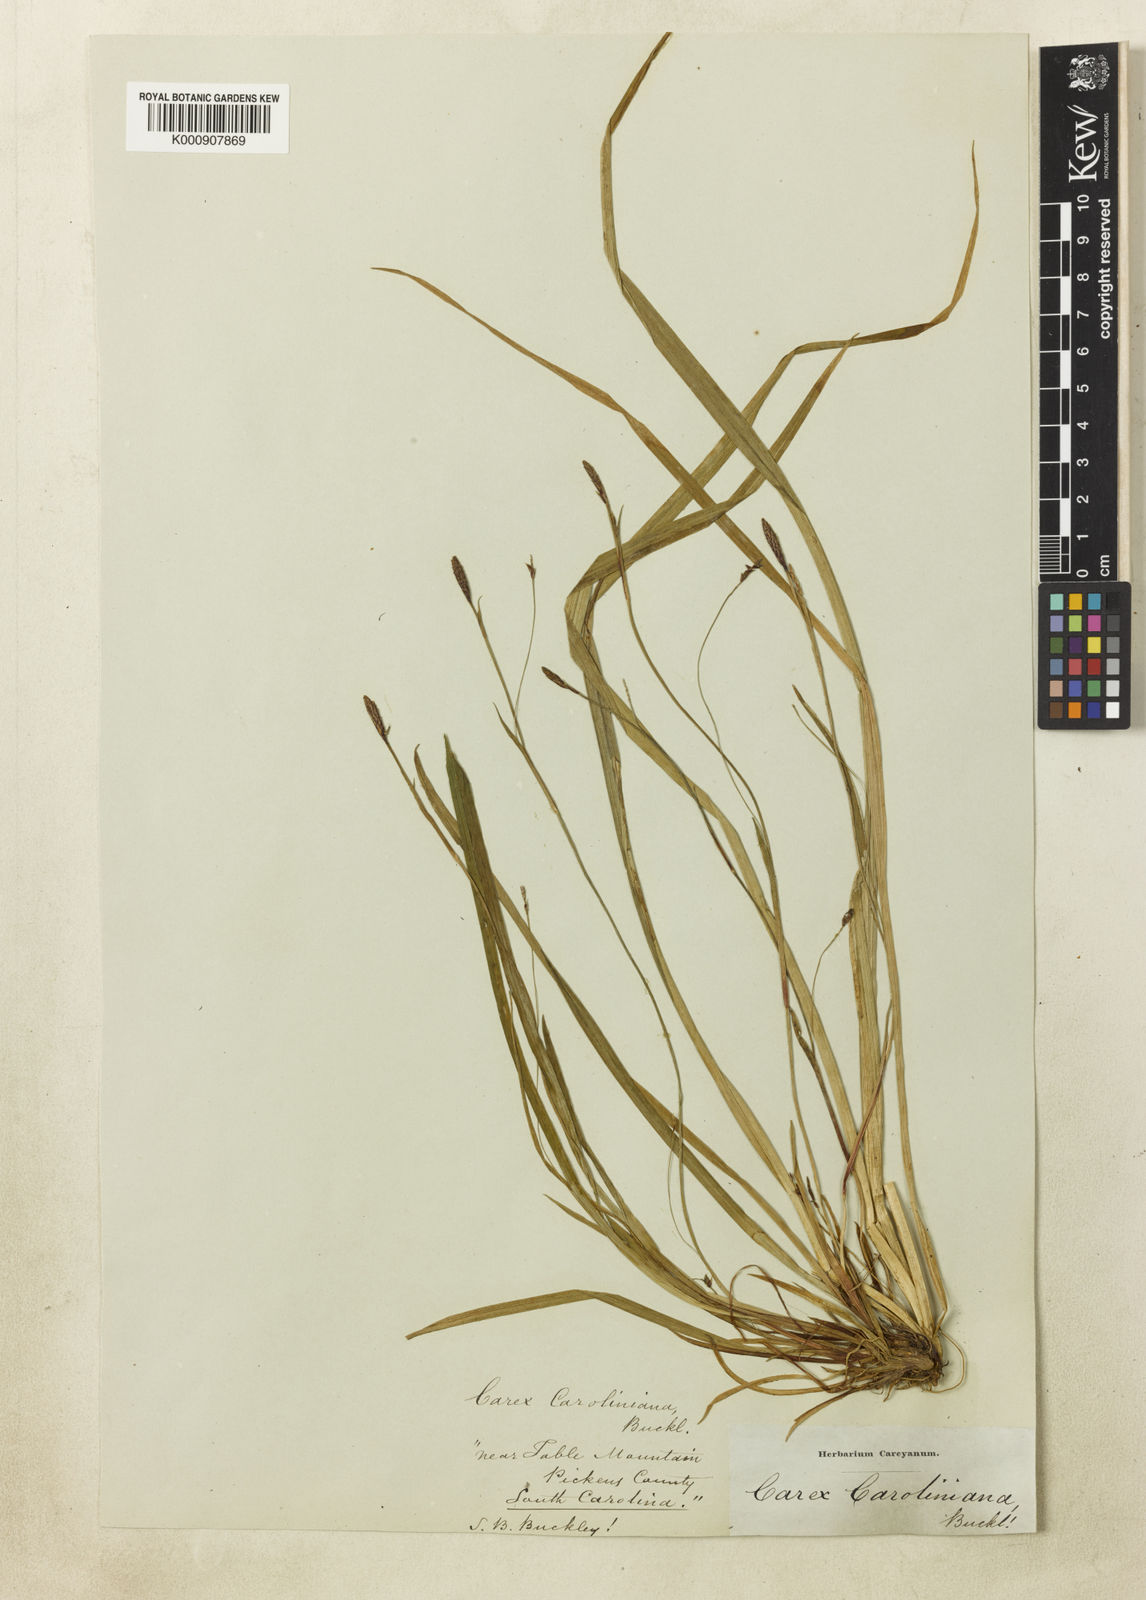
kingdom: Plantae
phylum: Tracheophyta
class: Liliopsida
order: Poales
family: Cyperaceae
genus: Carex
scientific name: Carex austrocaroliniana
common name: Tarheel sedge
